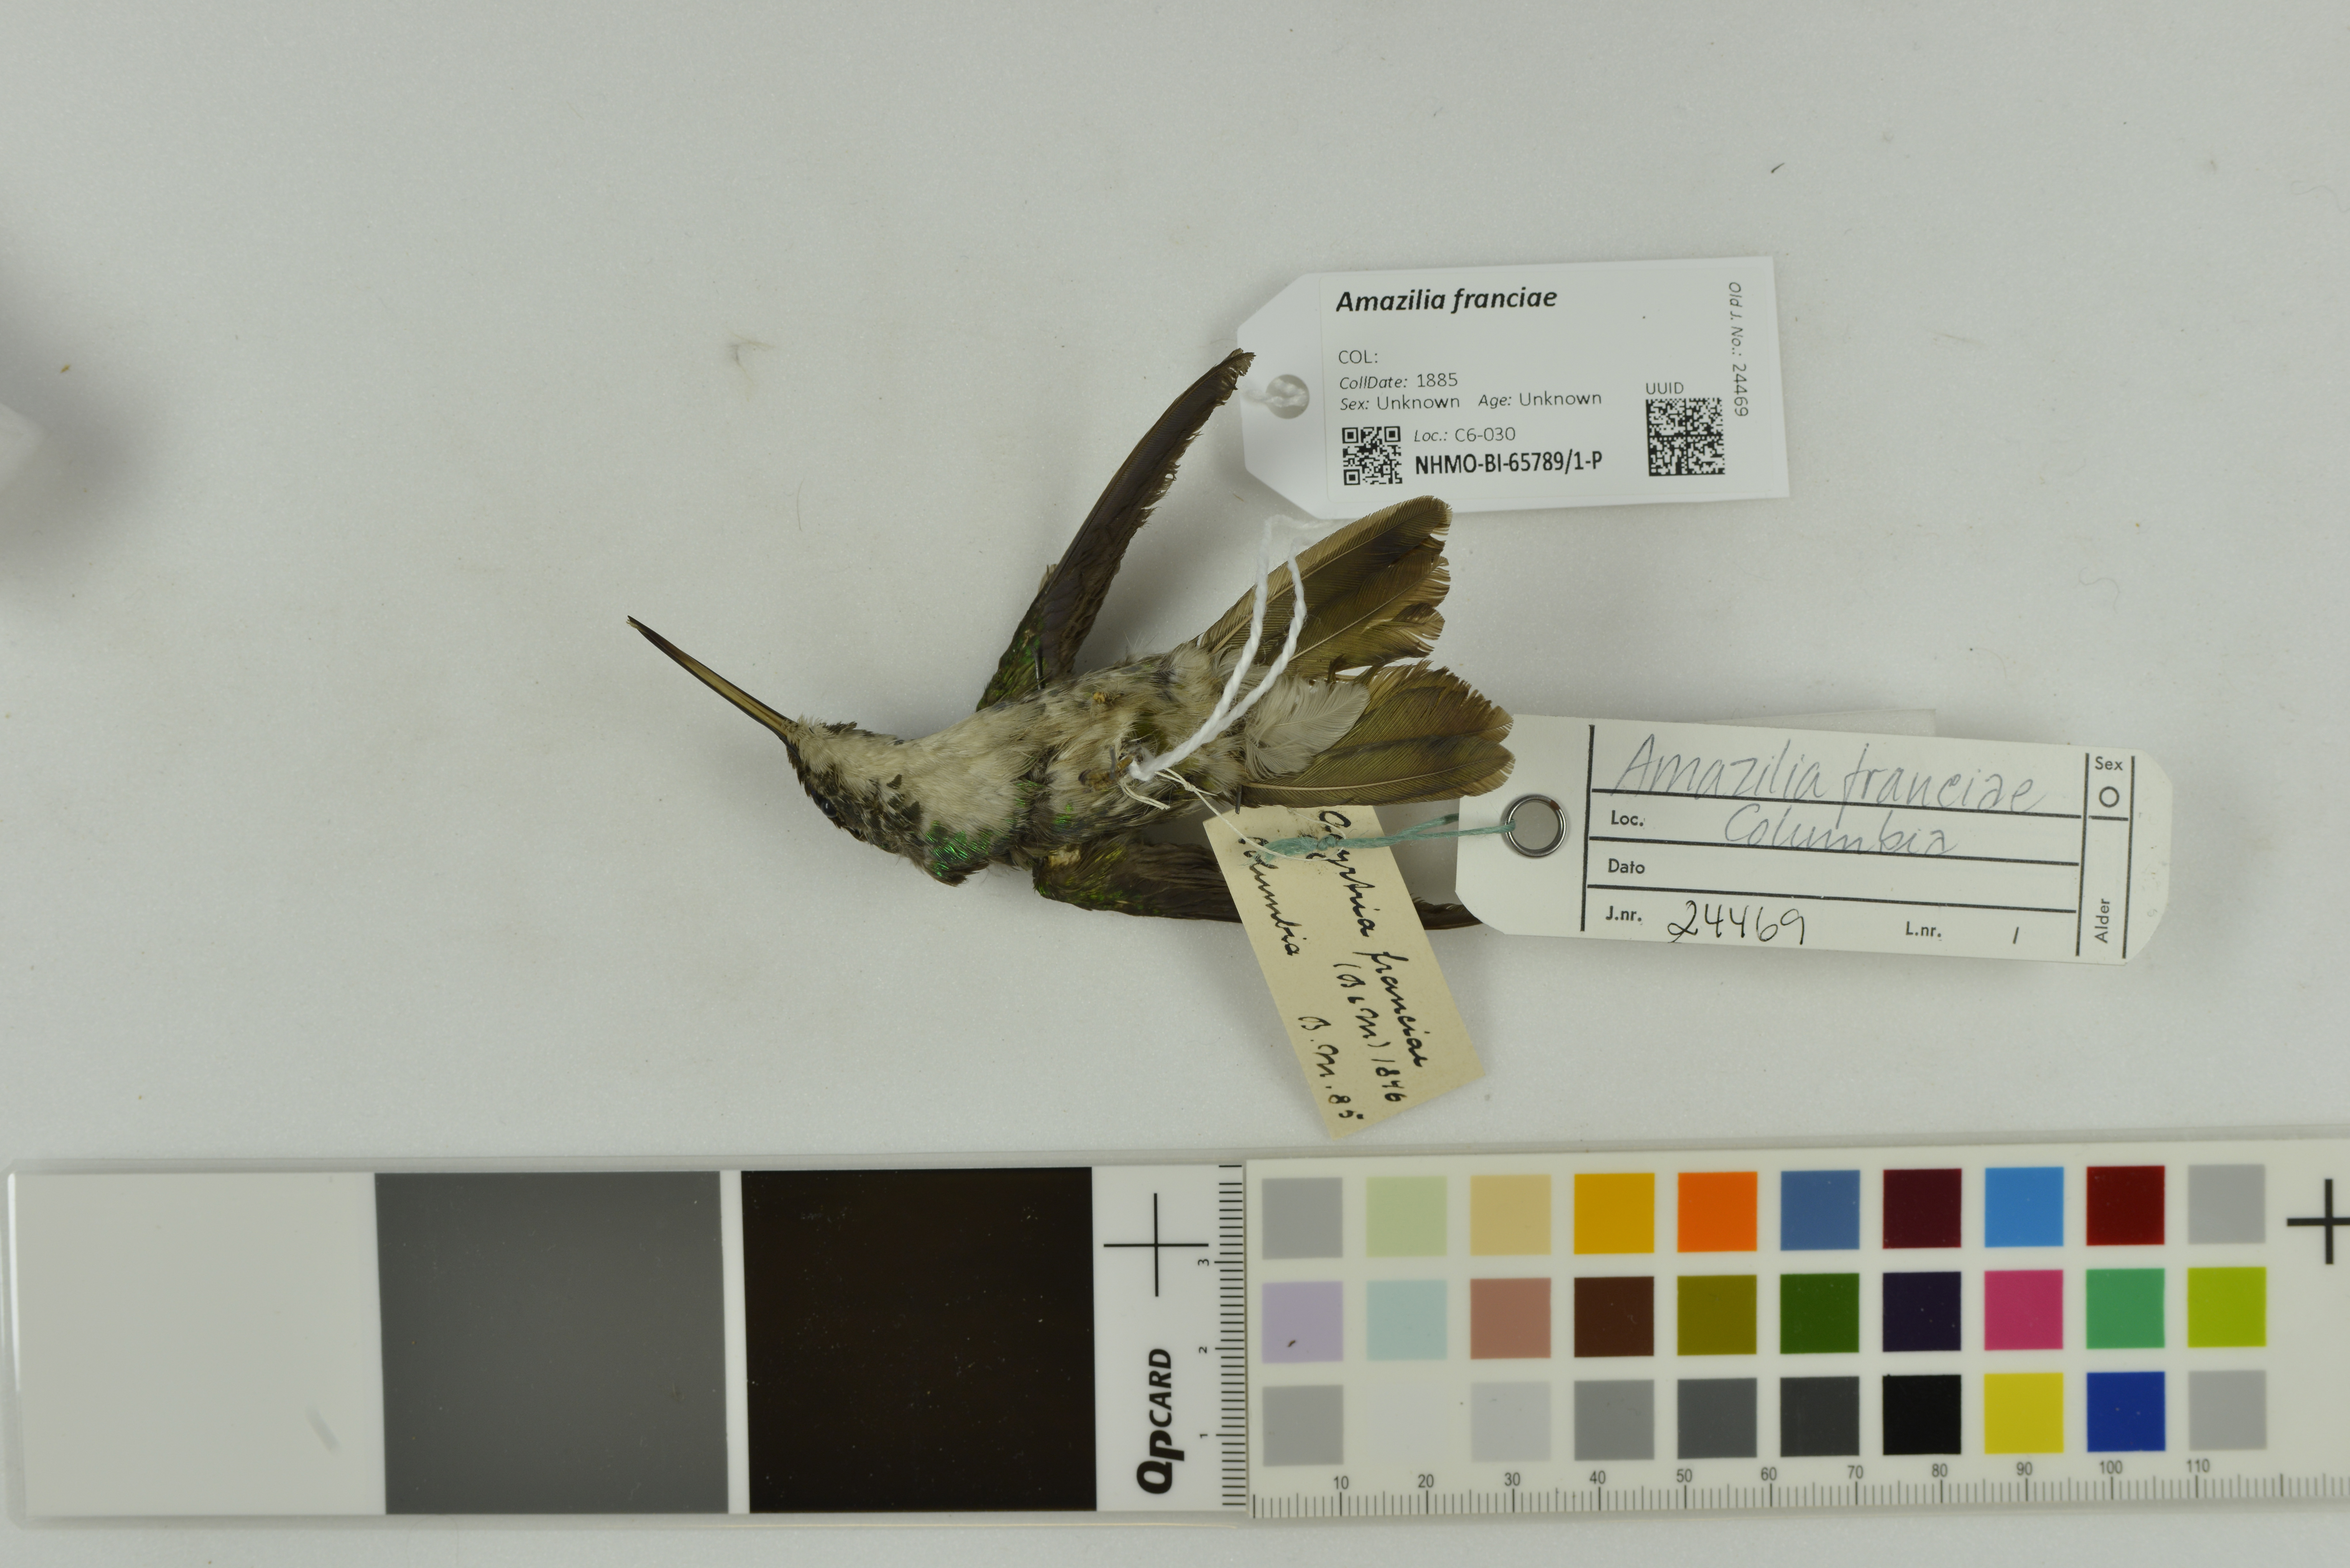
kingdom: Animalia
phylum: Chordata
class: Aves
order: Apodiformes
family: Trochilidae
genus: Uranomitra
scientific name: Uranomitra franciae
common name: Andean emerald
